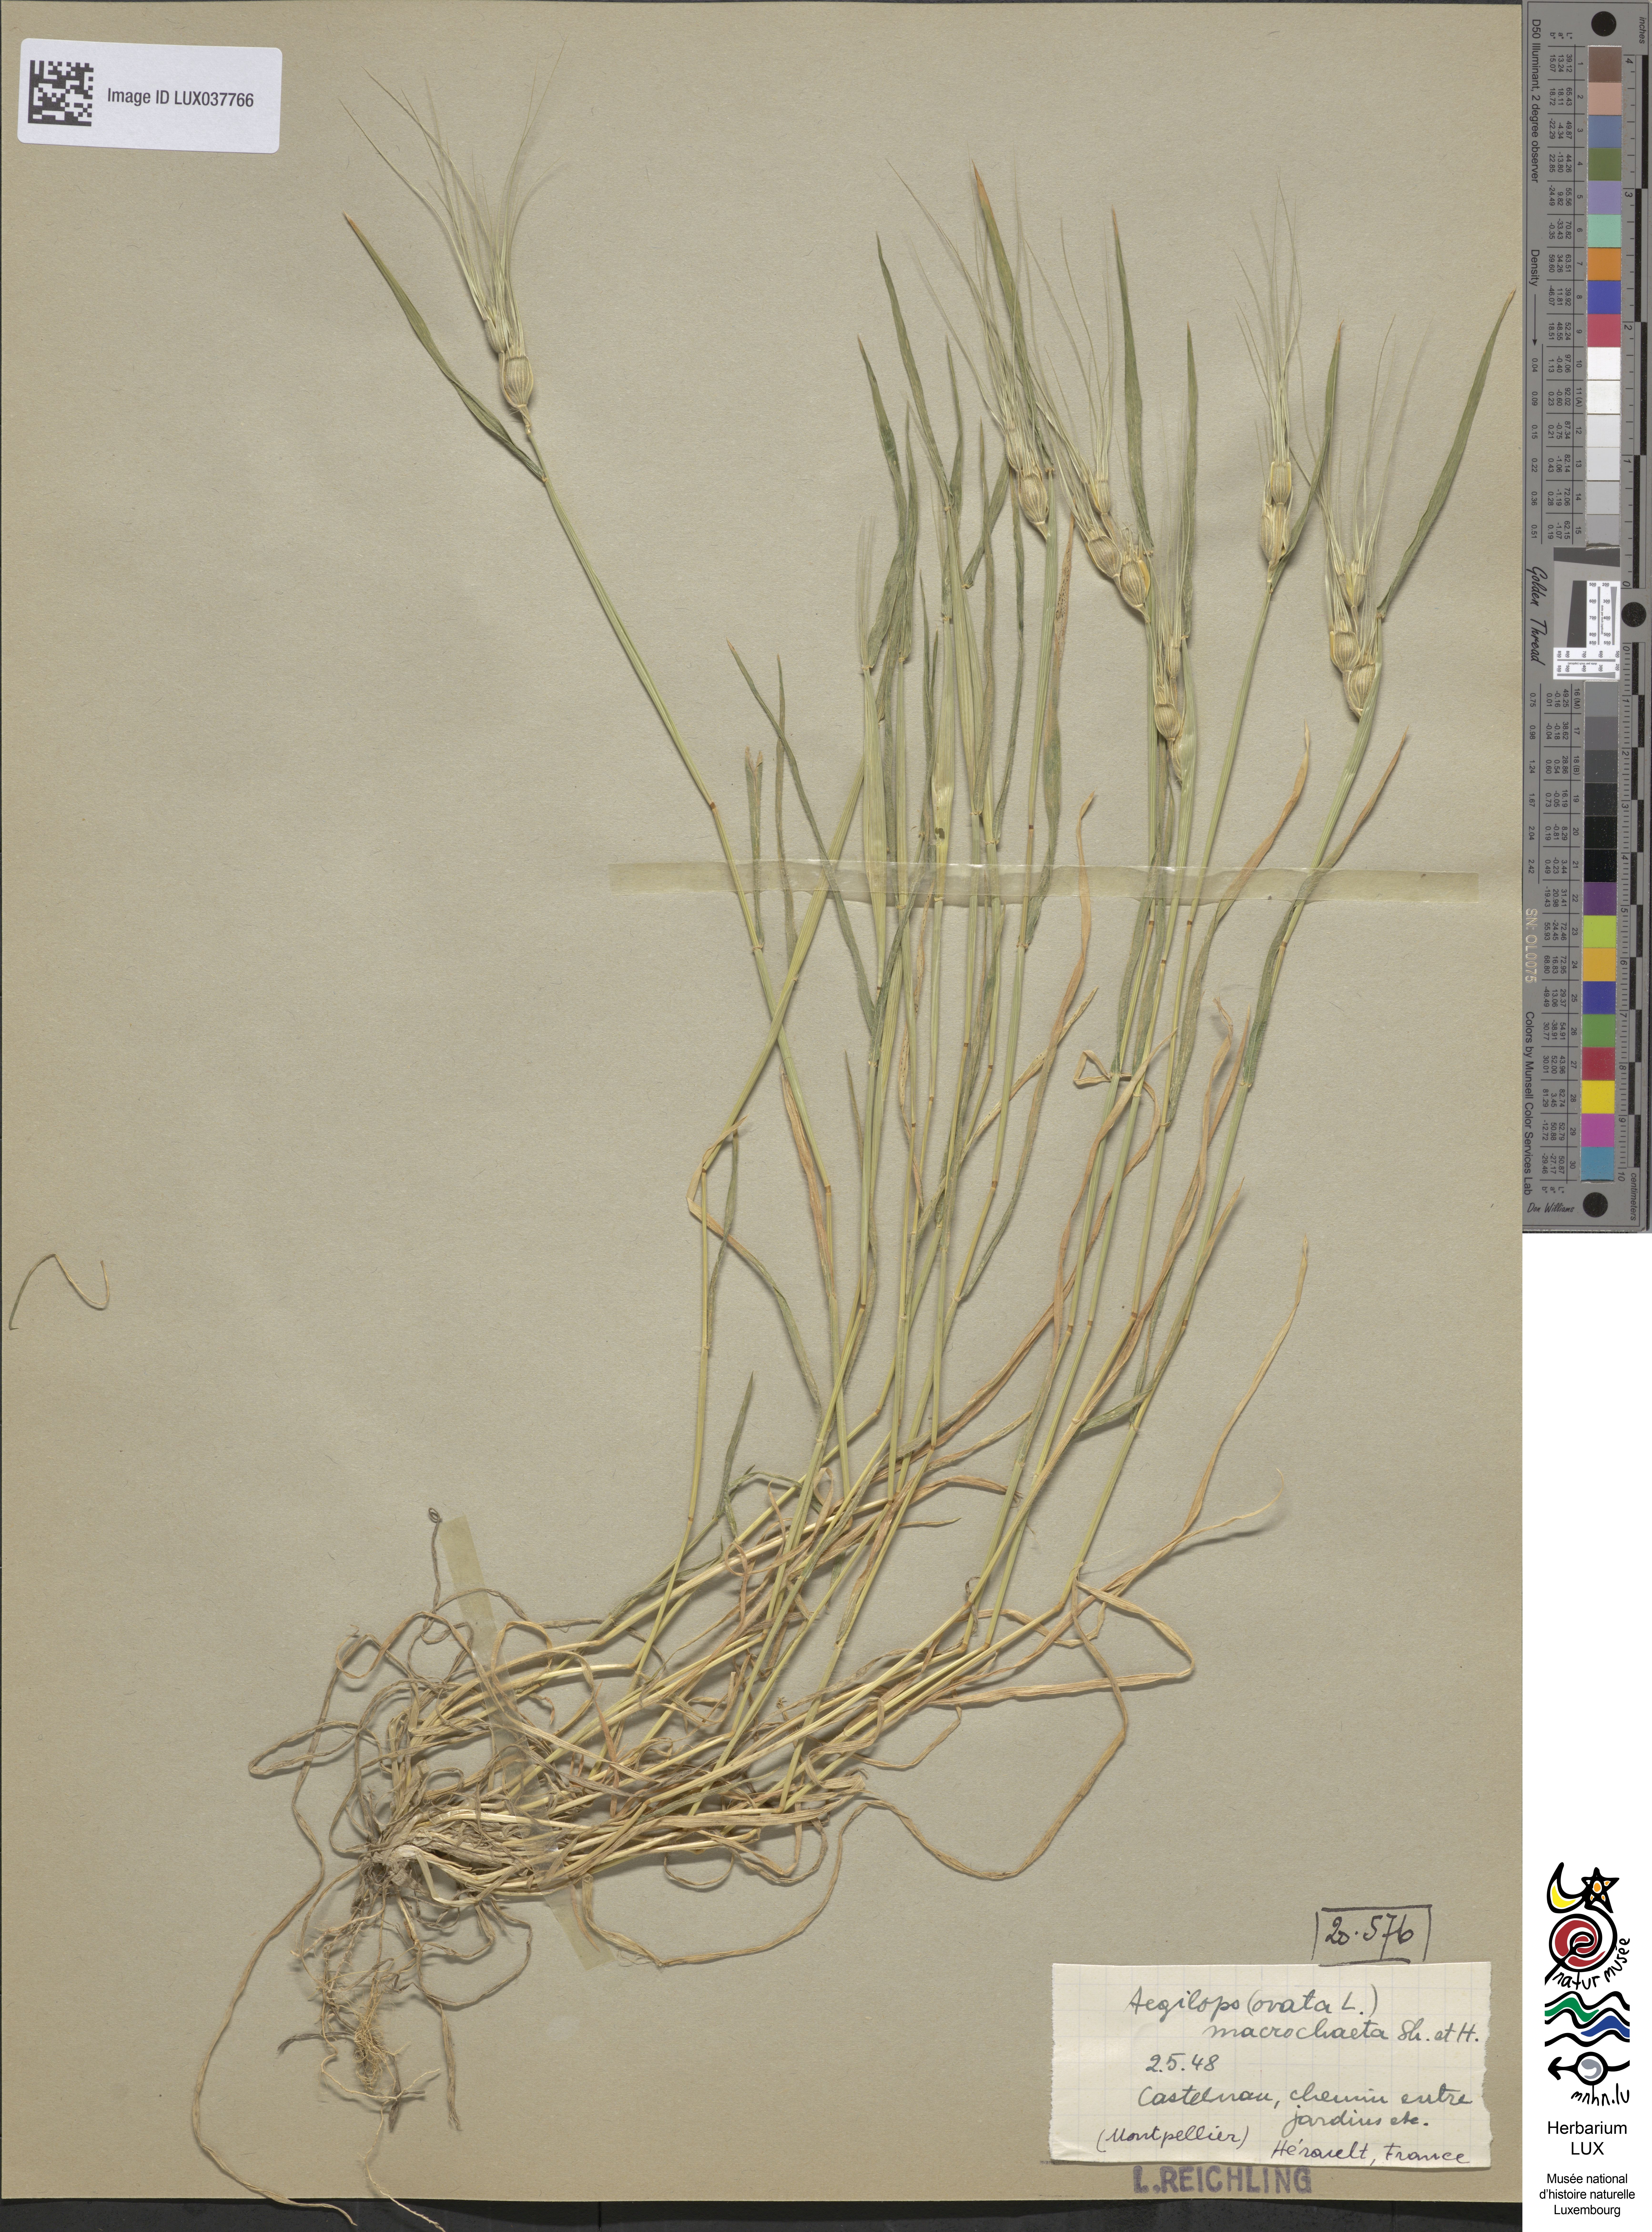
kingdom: Plantae
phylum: Tracheophyta
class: Liliopsida
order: Poales
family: Poaceae
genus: Aegilops
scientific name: Aegilops biuncialis
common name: Mediterranean aegilops
